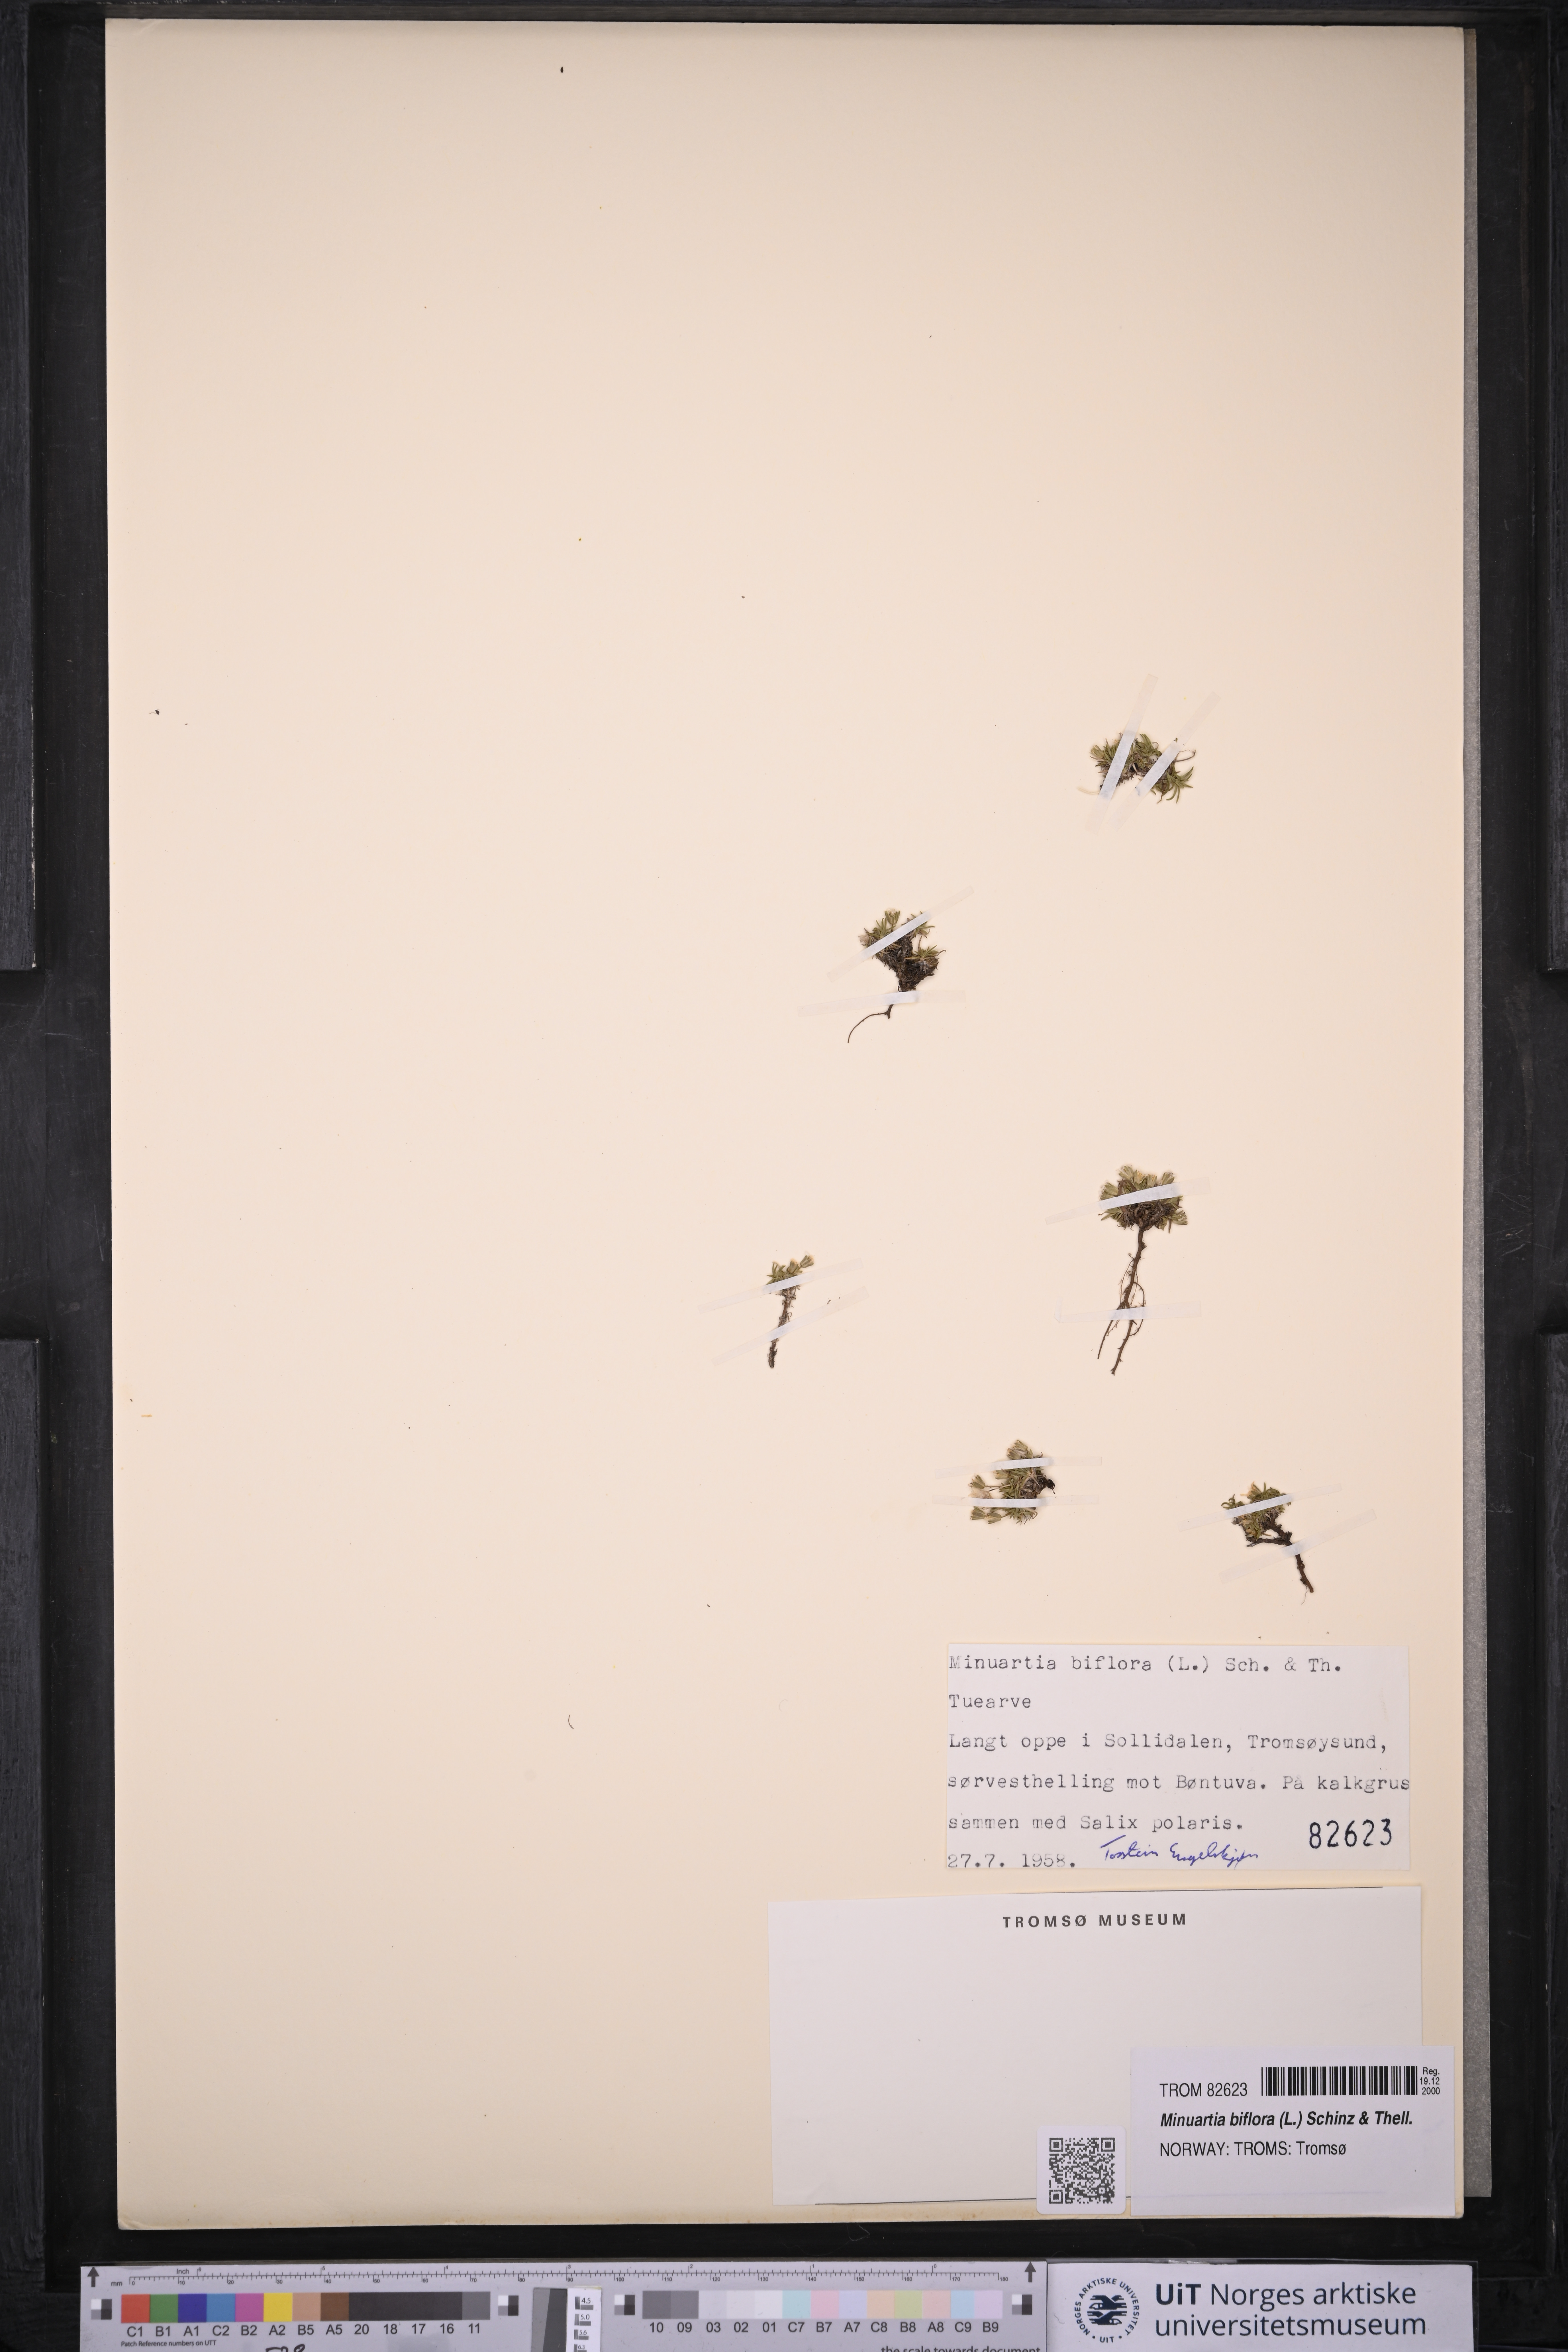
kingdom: Plantae
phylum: Tracheophyta
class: Magnoliopsida
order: Caryophyllales
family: Caryophyllaceae
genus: Cherleria
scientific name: Cherleria biflora
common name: Mountain sandwort
